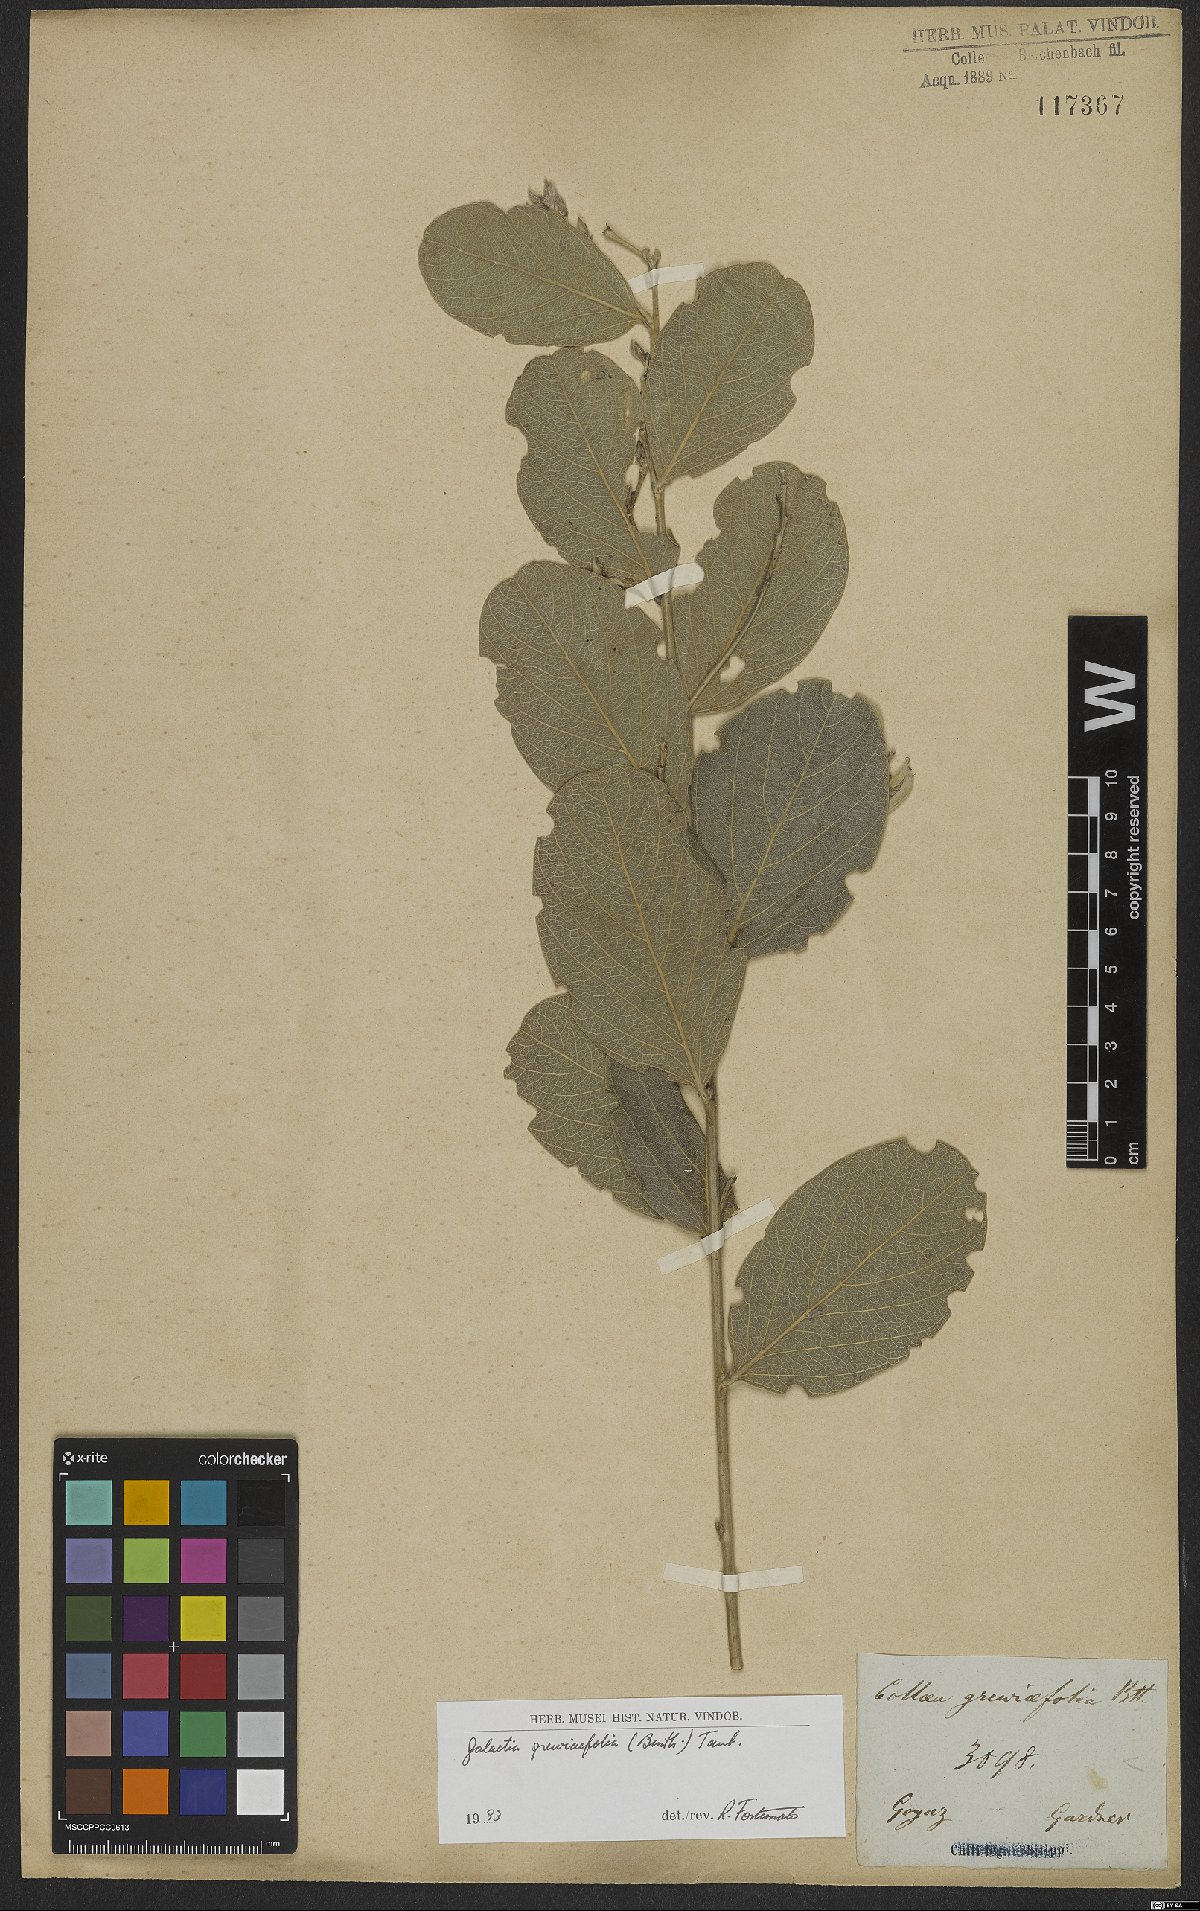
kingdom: Plantae
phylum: Tracheophyta
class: Magnoliopsida
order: Fabales
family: Fabaceae
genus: Cerradicola
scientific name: Cerradicola grewiifolia
